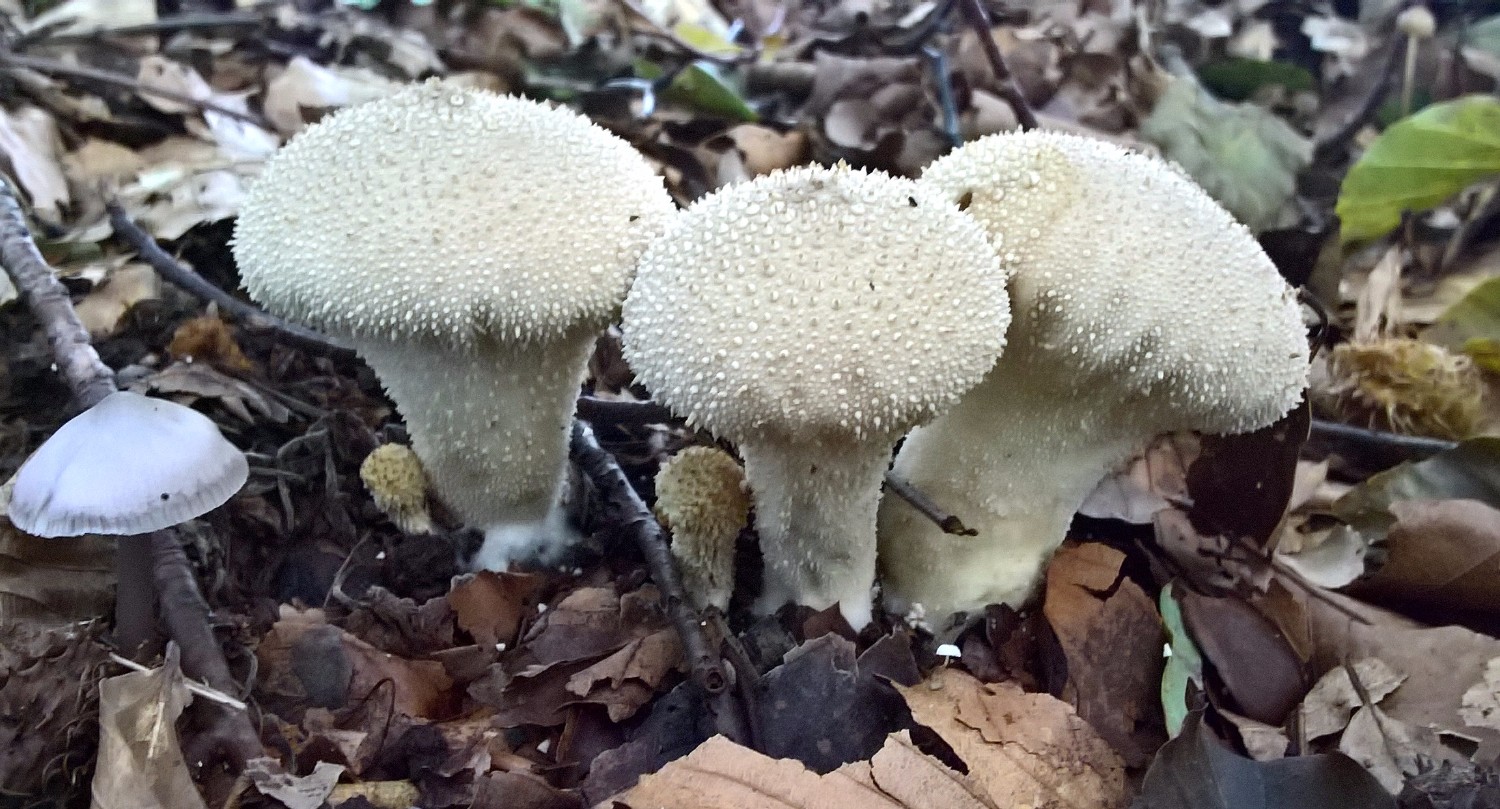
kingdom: Fungi
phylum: Basidiomycota
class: Agaricomycetes
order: Agaricales
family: Lycoperdaceae
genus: Lycoperdon
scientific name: Lycoperdon perlatum
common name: krystal-støvbold
